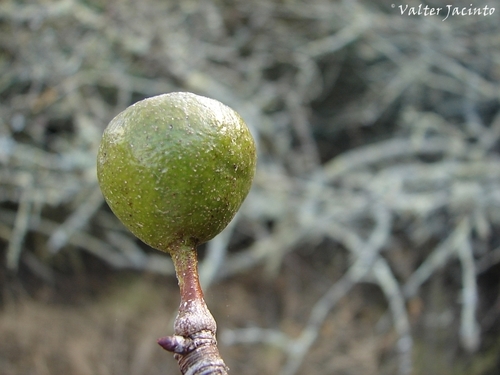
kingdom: Plantae
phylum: Tracheophyta
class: Magnoliopsida
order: Rosales
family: Rosaceae
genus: Pyrus
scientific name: Pyrus bourgaeana
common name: Iberian pear
